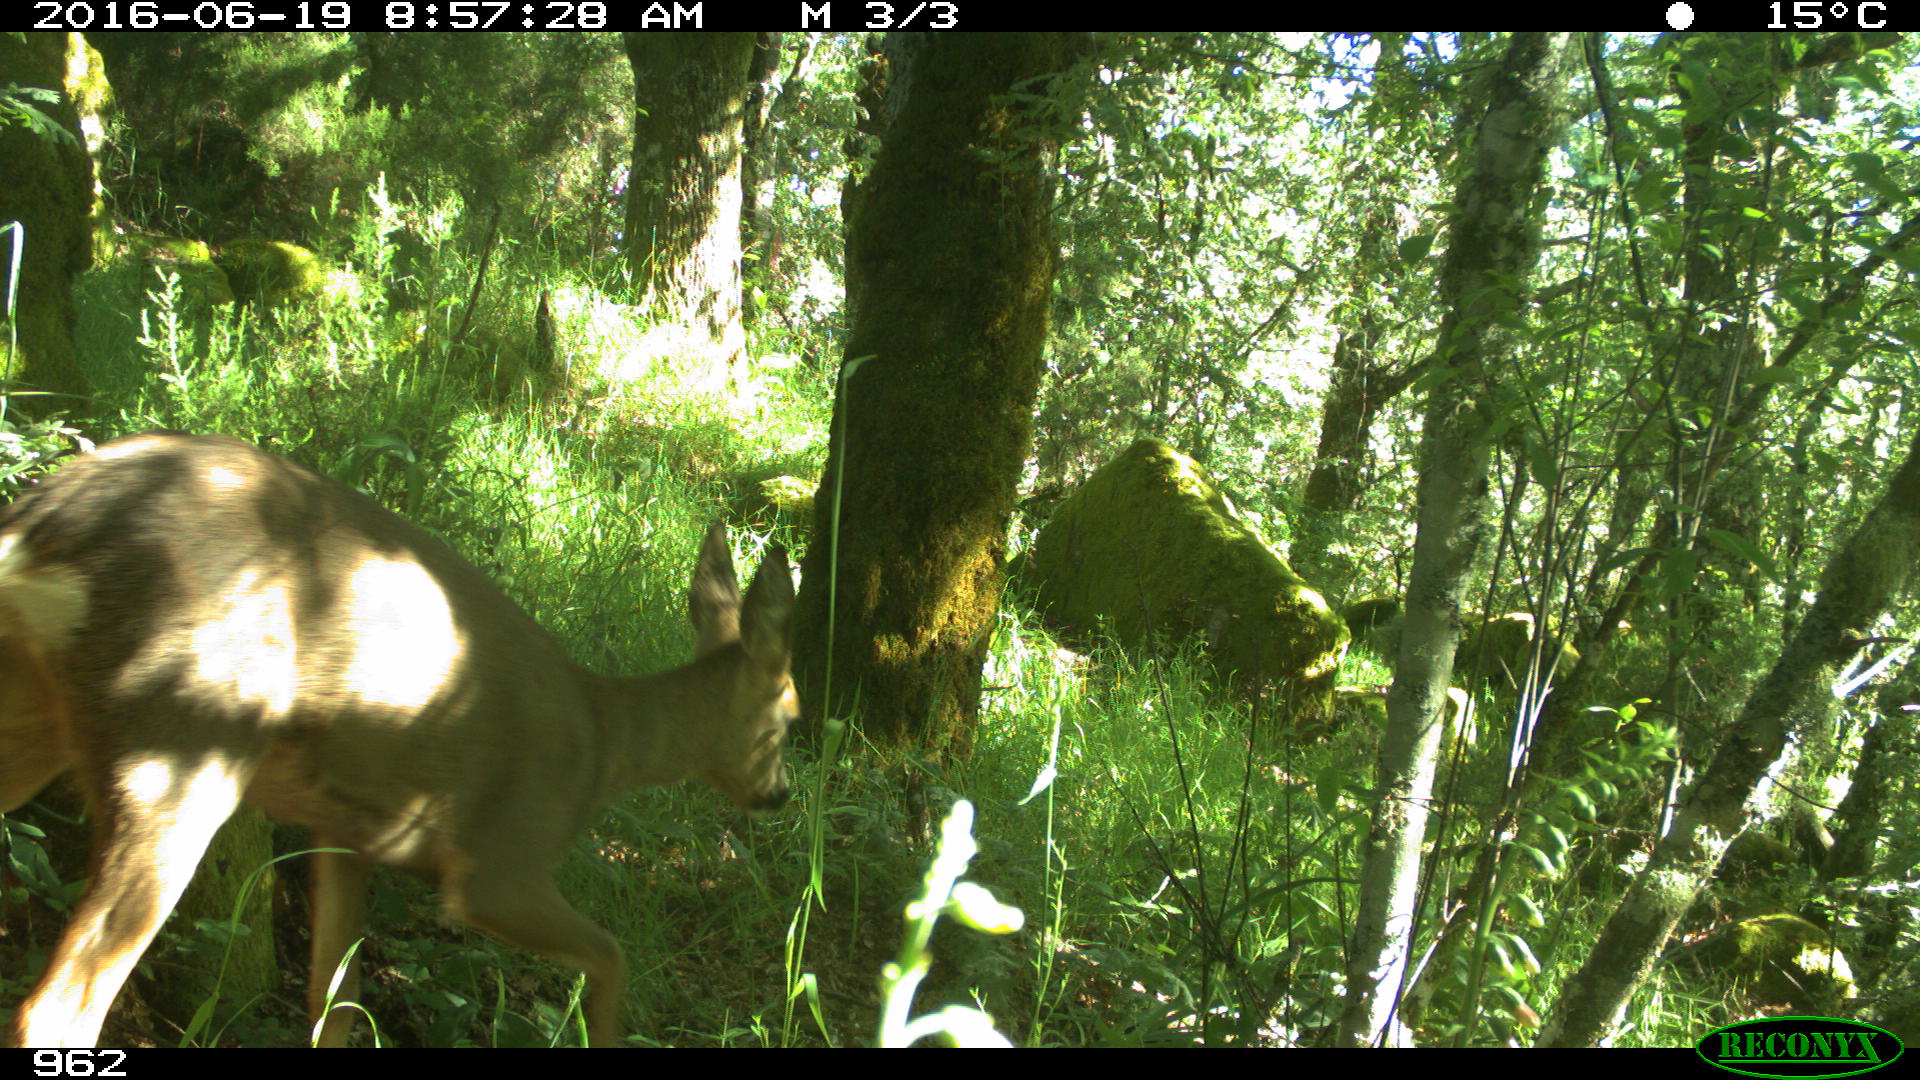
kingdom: Animalia
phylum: Chordata
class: Mammalia
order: Artiodactyla
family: Cervidae
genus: Capreolus
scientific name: Capreolus capreolus
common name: Western roe deer
